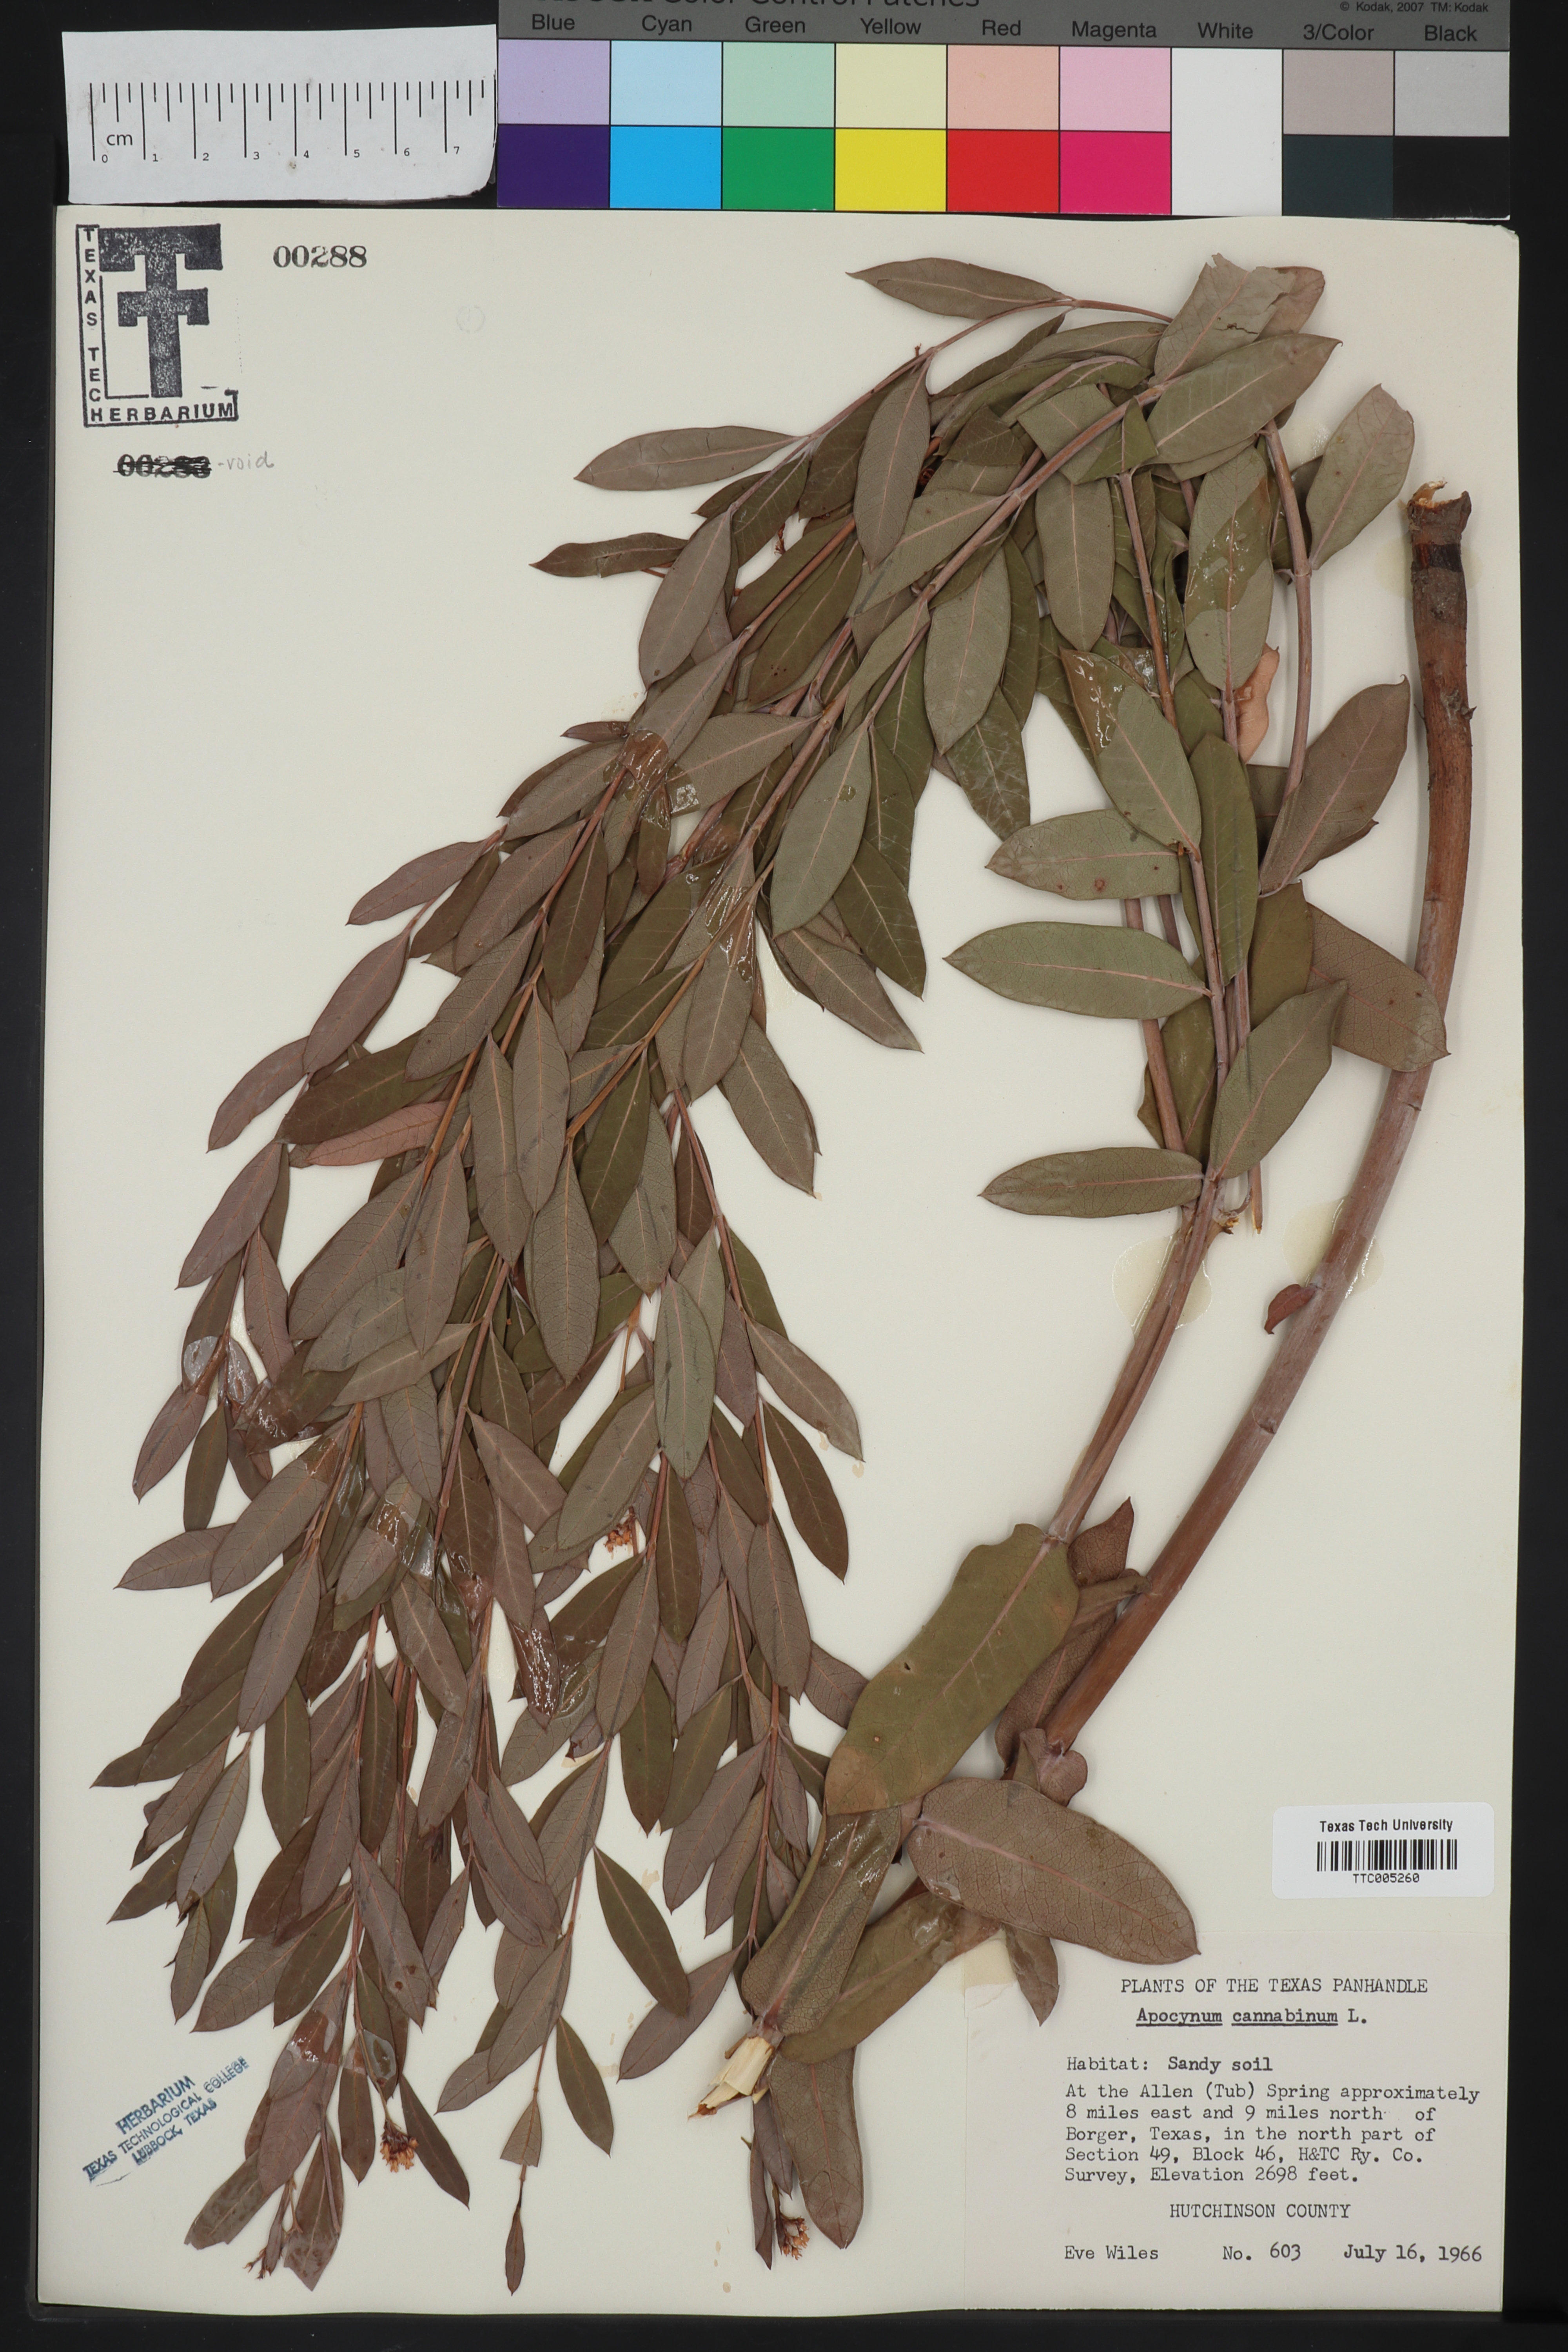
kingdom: Plantae
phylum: Tracheophyta
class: Magnoliopsida
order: Gentianales
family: Apocynaceae
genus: Apocynum
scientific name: Apocynum cannabinum
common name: Hemp dogbane
